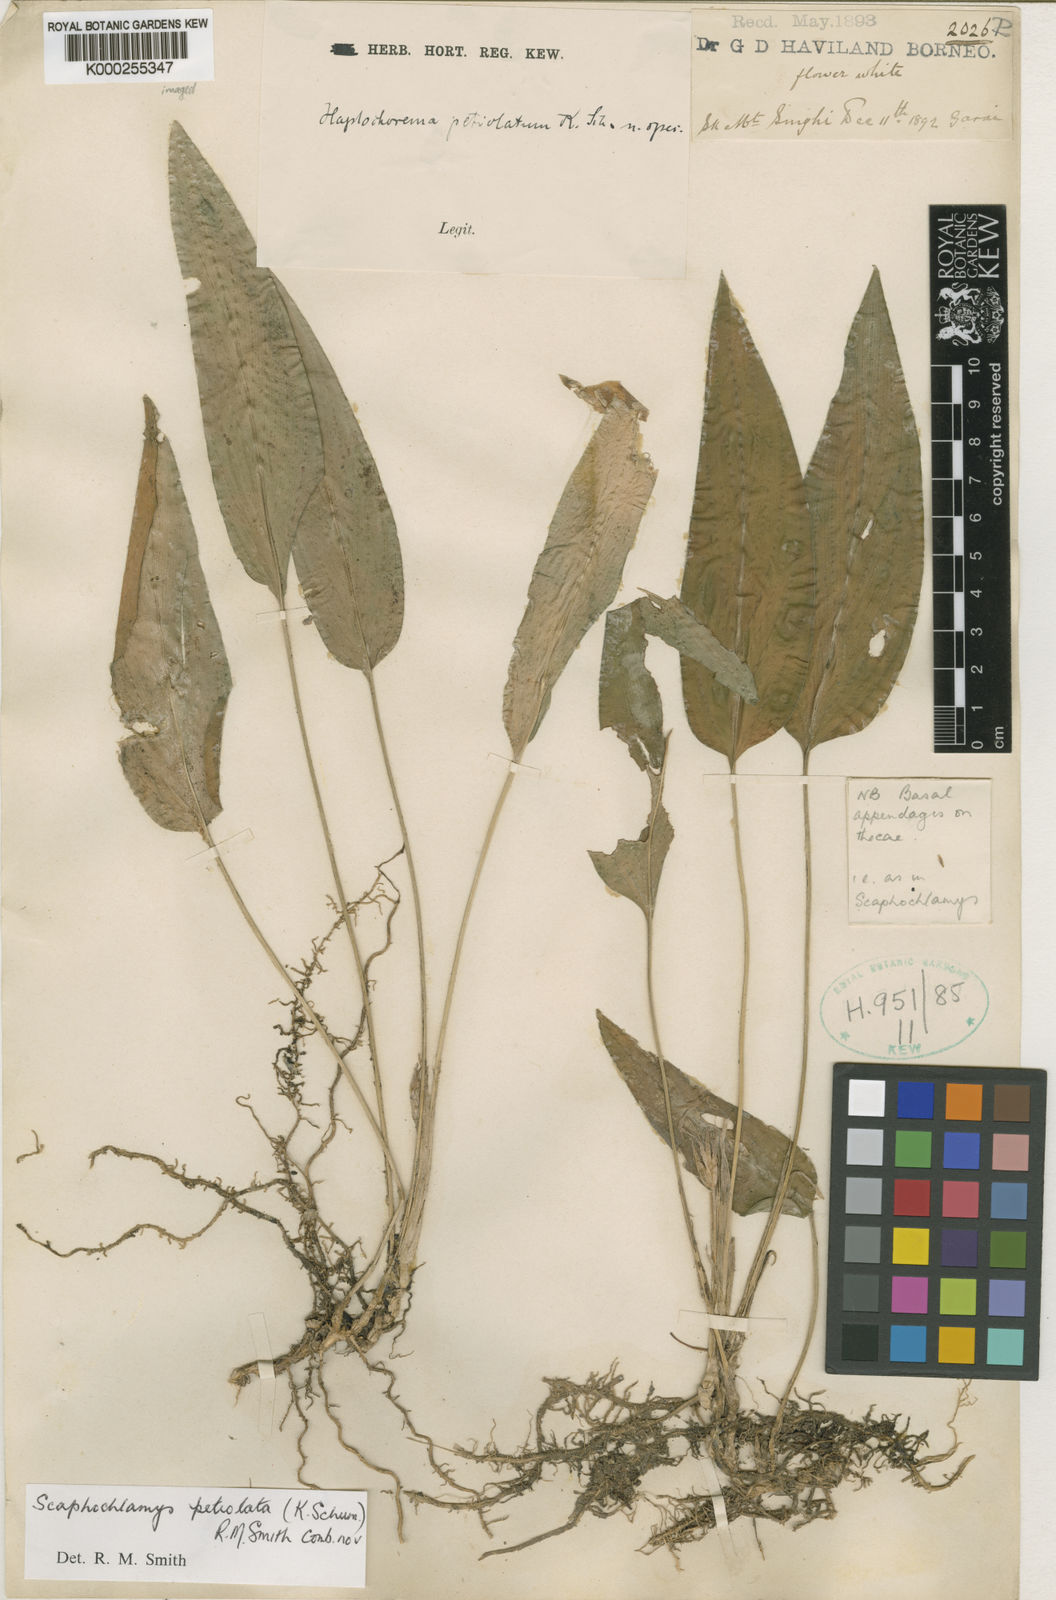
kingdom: Plantae
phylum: Tracheophyta
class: Liliopsida
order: Zingiberales
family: Zingiberaceae
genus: Scaphochlamys
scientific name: Scaphochlamys petiolata
